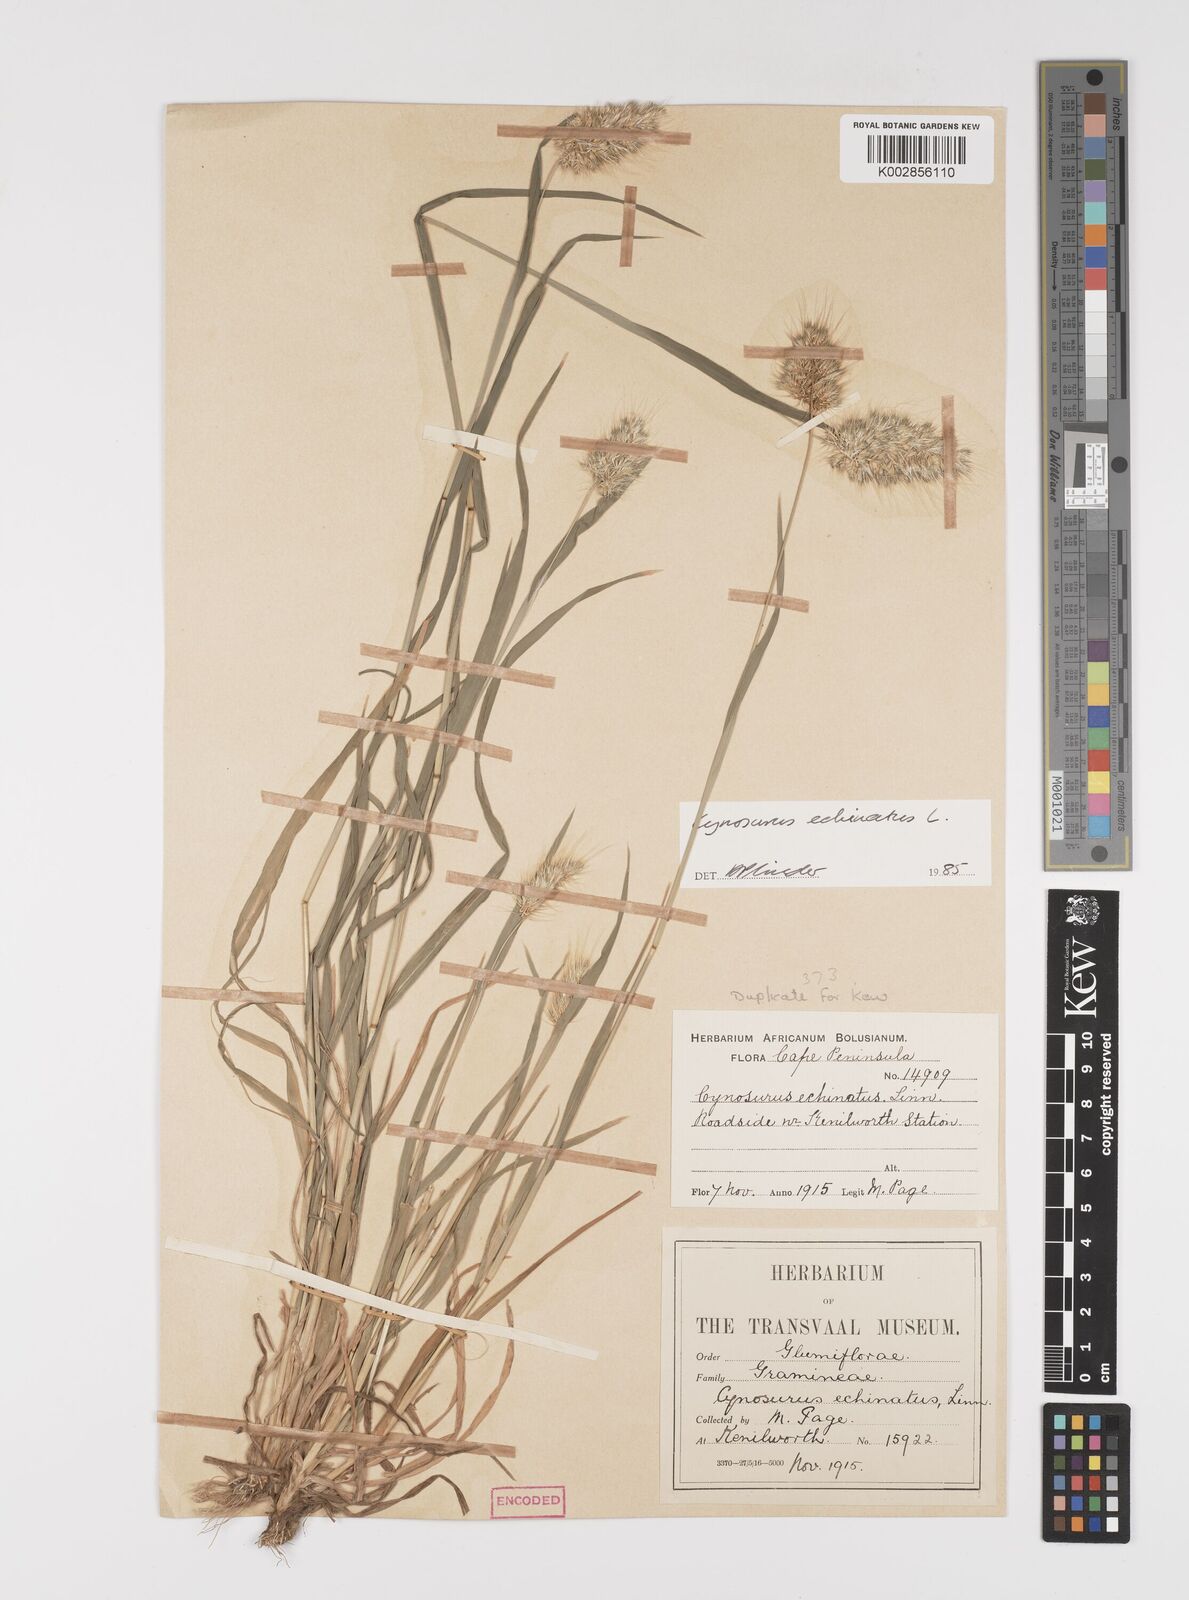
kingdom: Plantae
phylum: Tracheophyta
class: Liliopsida
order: Poales
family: Poaceae
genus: Cynosurus
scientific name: Cynosurus echinatus
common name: Rough dog's-tail
